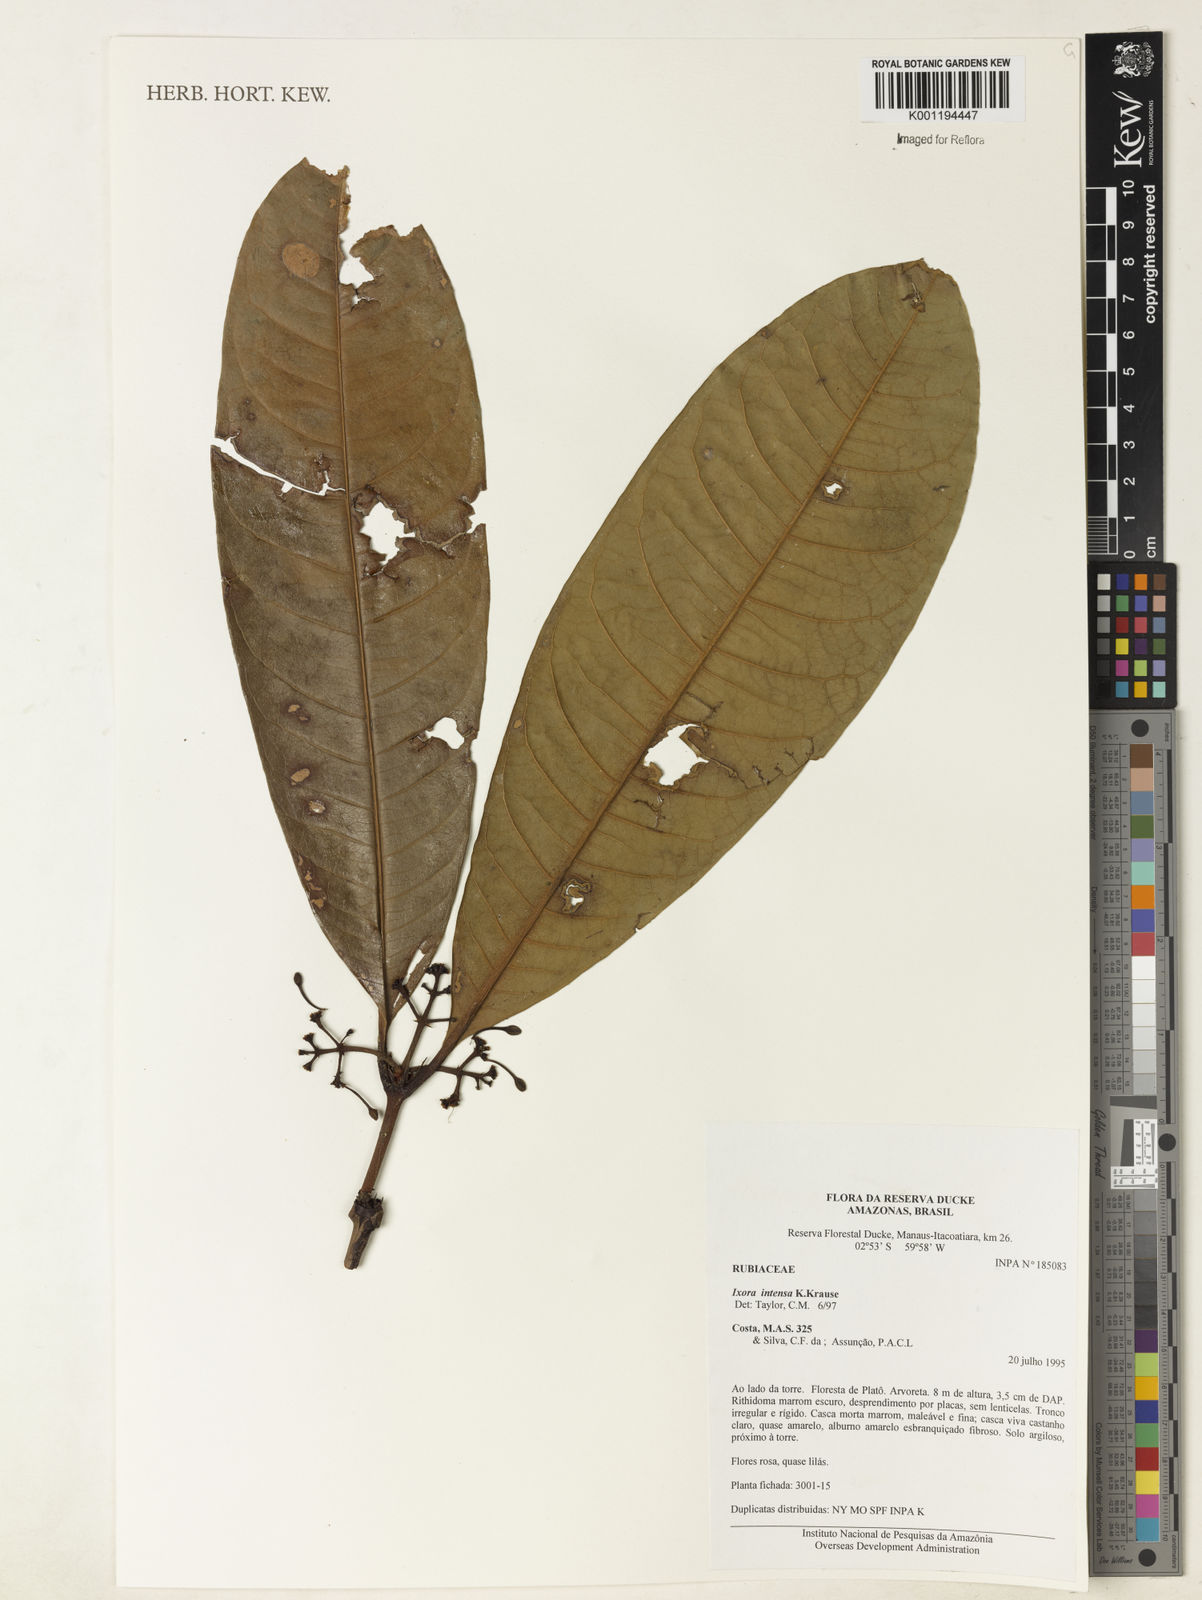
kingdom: Plantae
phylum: Tracheophyta
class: Magnoliopsida
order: Gentianales
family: Rubiaceae
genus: Ixora
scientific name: Ixora intensa
